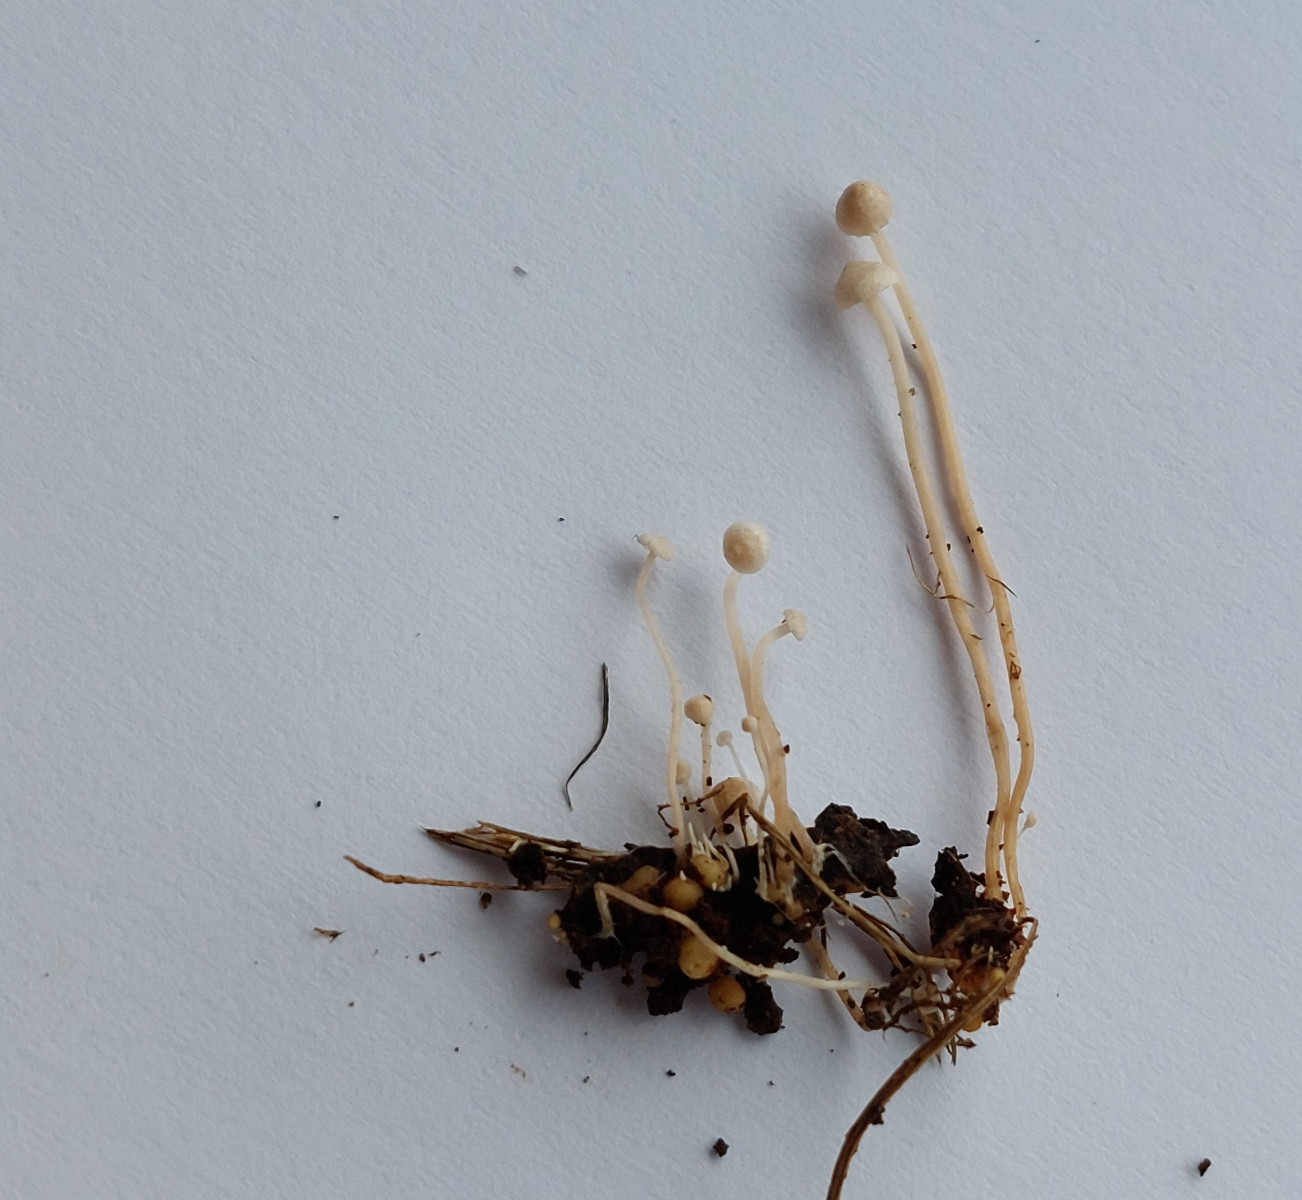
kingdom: Fungi
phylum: Basidiomycota
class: Agaricomycetes
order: Agaricales
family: Tricholomataceae
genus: Collybia
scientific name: Collybia cookei
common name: gulknoldet lighat
